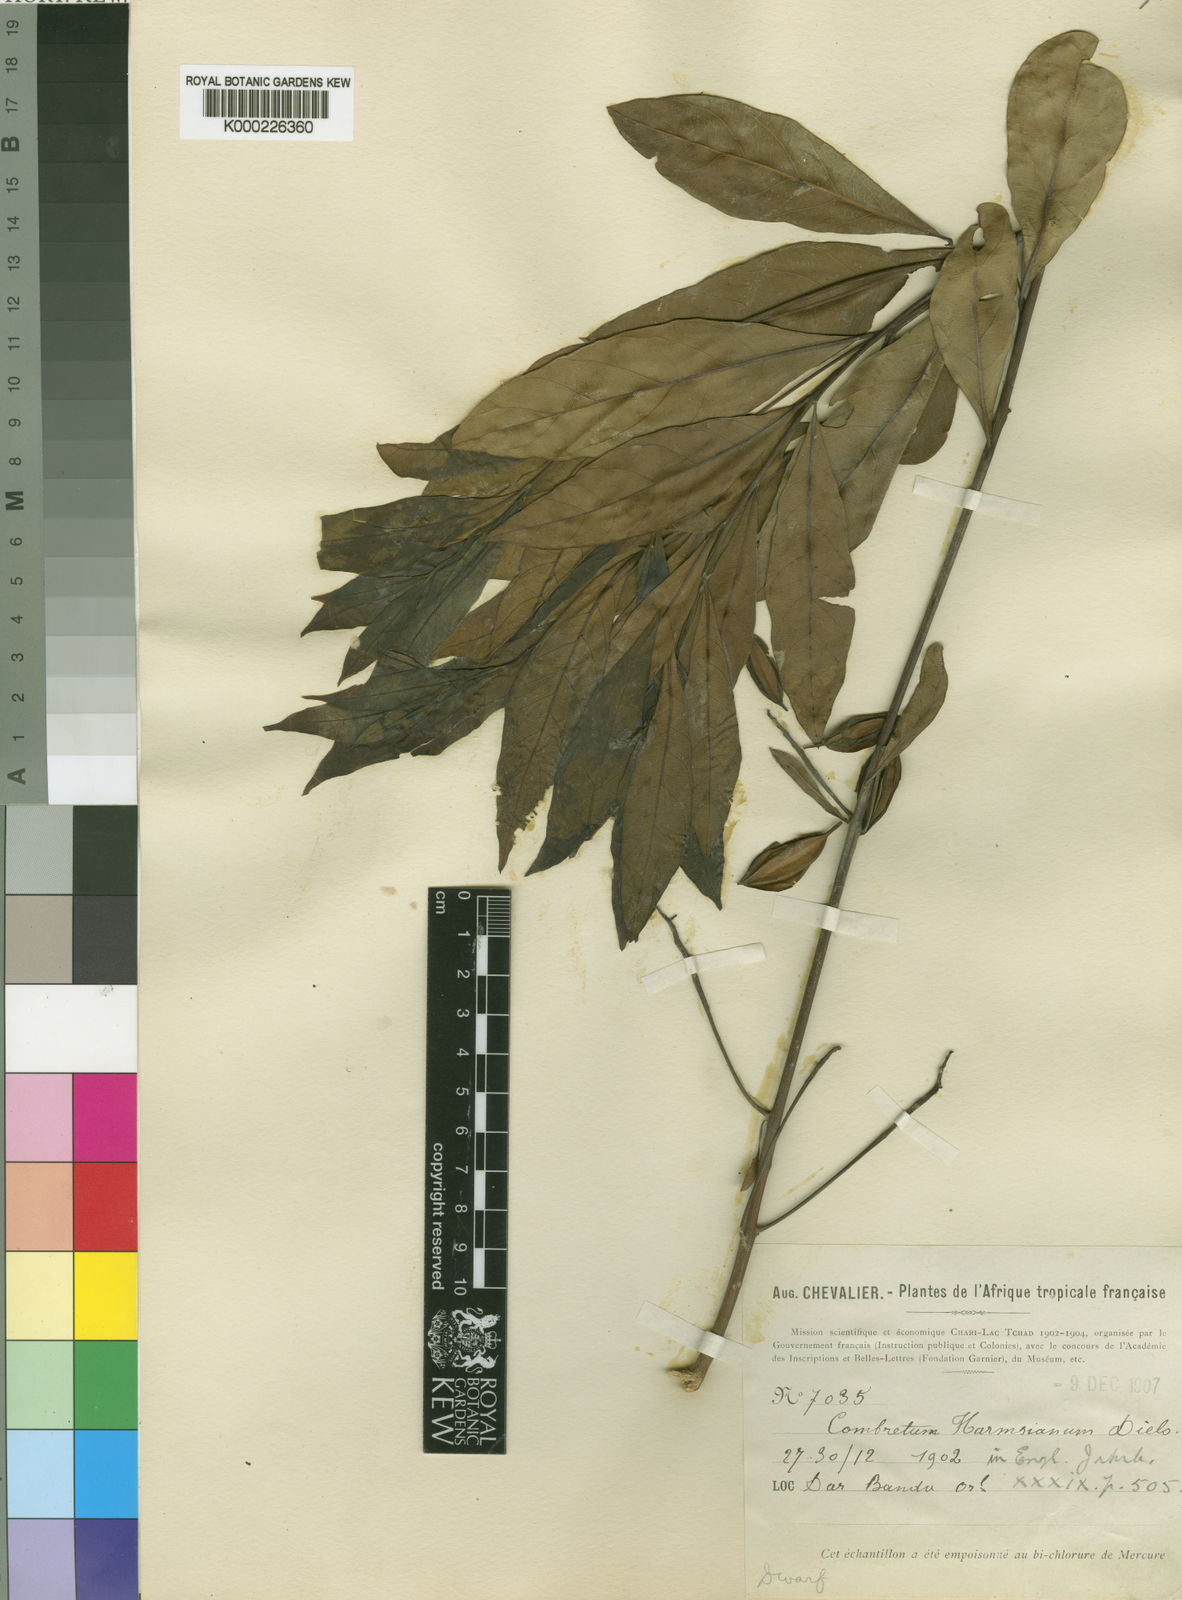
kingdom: Plantae
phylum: Tracheophyta
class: Magnoliopsida
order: Myrtales
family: Combretaceae
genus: Combretum
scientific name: Combretum harmsianum
